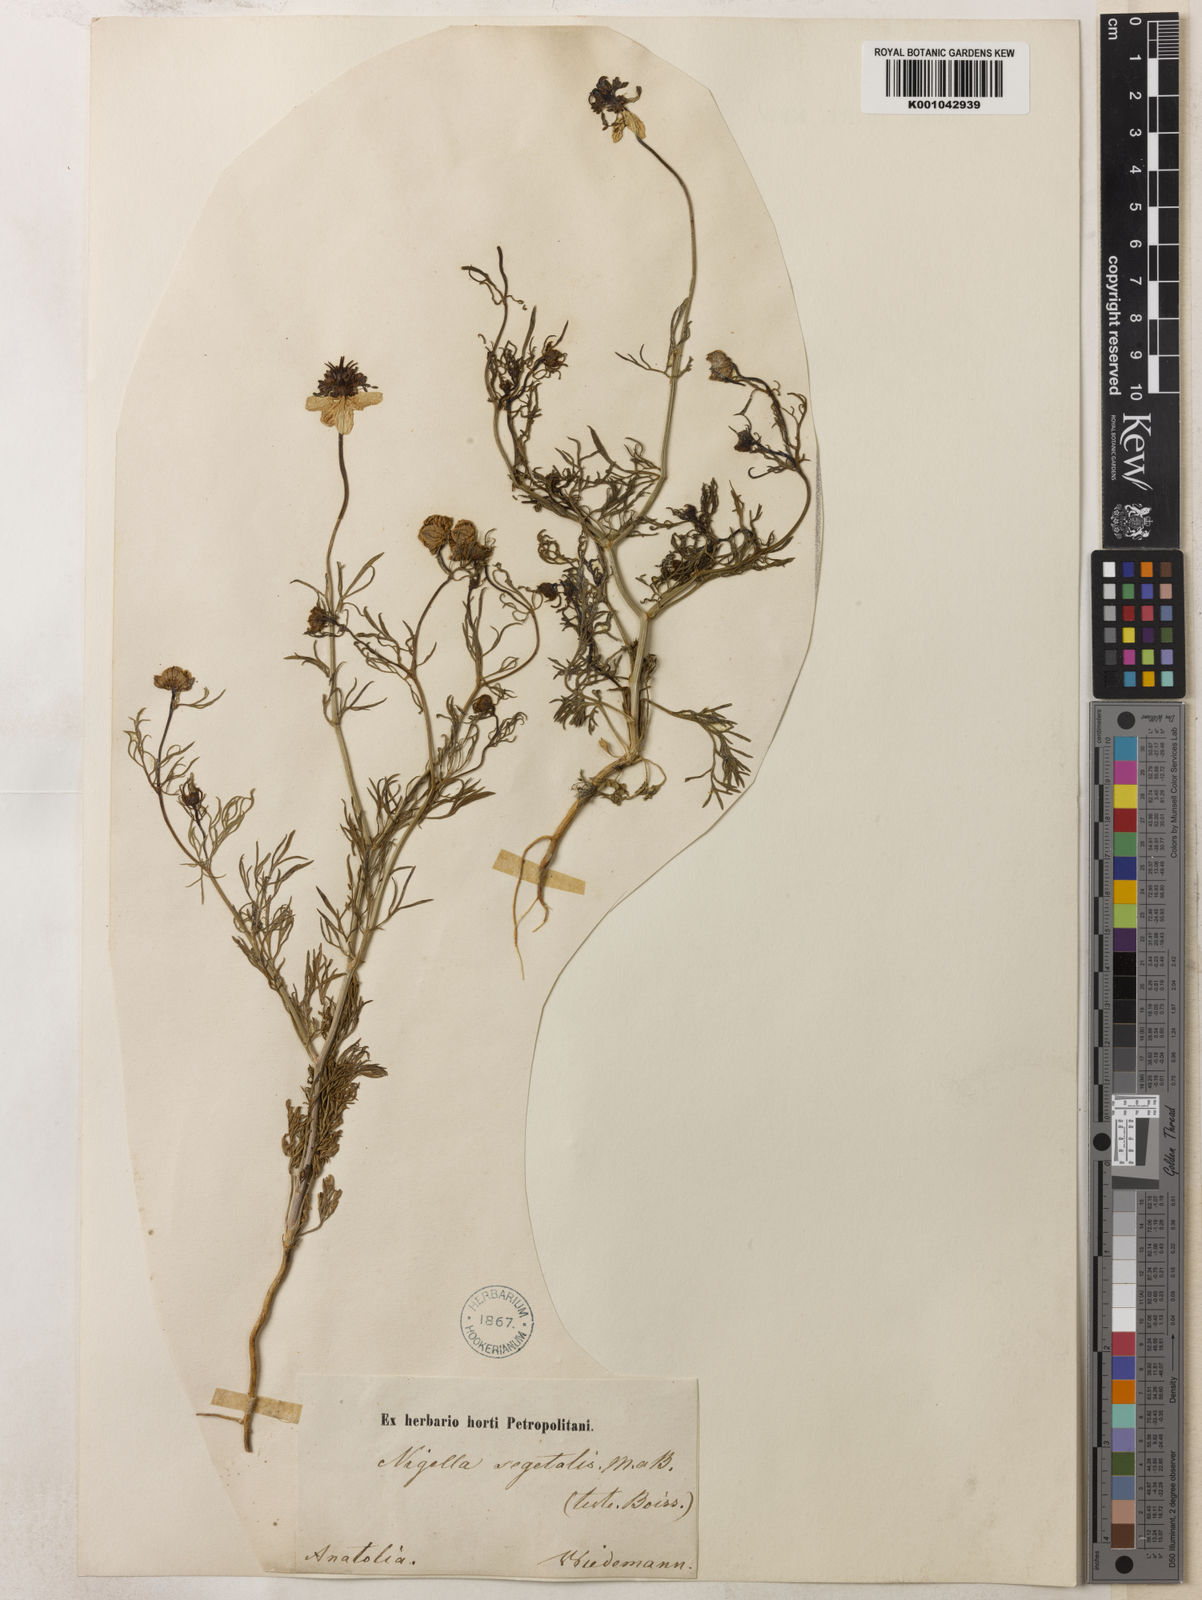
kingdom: Plantae
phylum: Tracheophyta
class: Magnoliopsida
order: Ranunculales
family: Ranunculaceae
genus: Nigella
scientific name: Nigella segetalis
